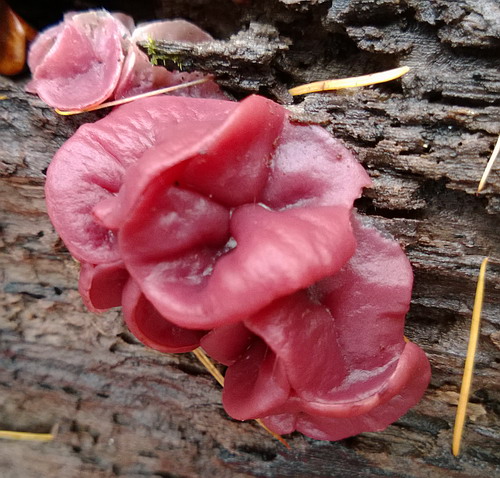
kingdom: Fungi
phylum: Ascomycota
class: Leotiomycetes
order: Helotiales
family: Gelatinodiscaceae
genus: Ascocoryne
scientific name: Ascocoryne cylichnium
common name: stor sejskive
